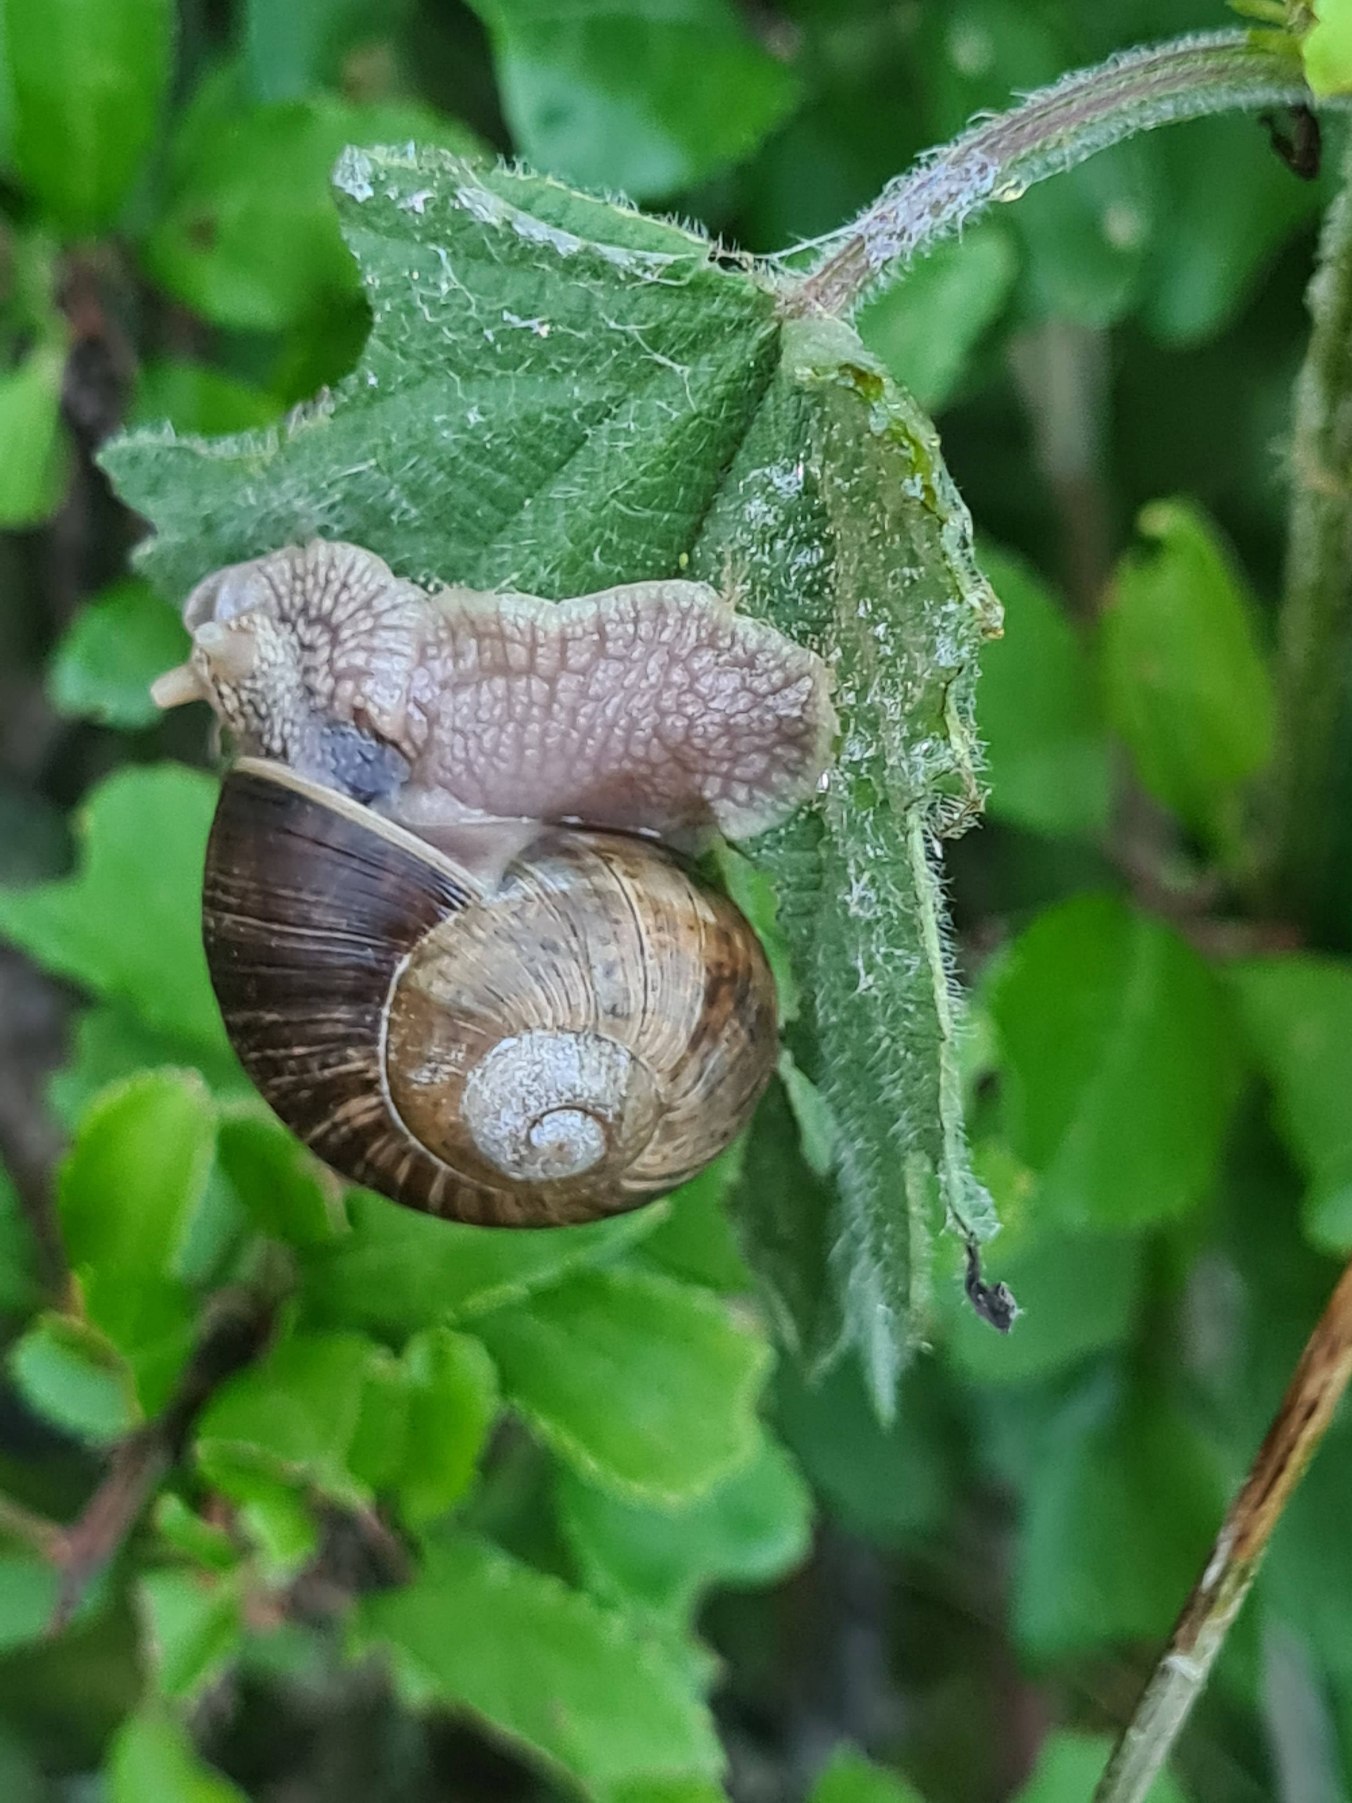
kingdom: Animalia
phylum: Mollusca
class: Gastropoda
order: Stylommatophora
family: Helicidae
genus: Helix
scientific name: Helix pomatia
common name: Vinbjergsnegl
